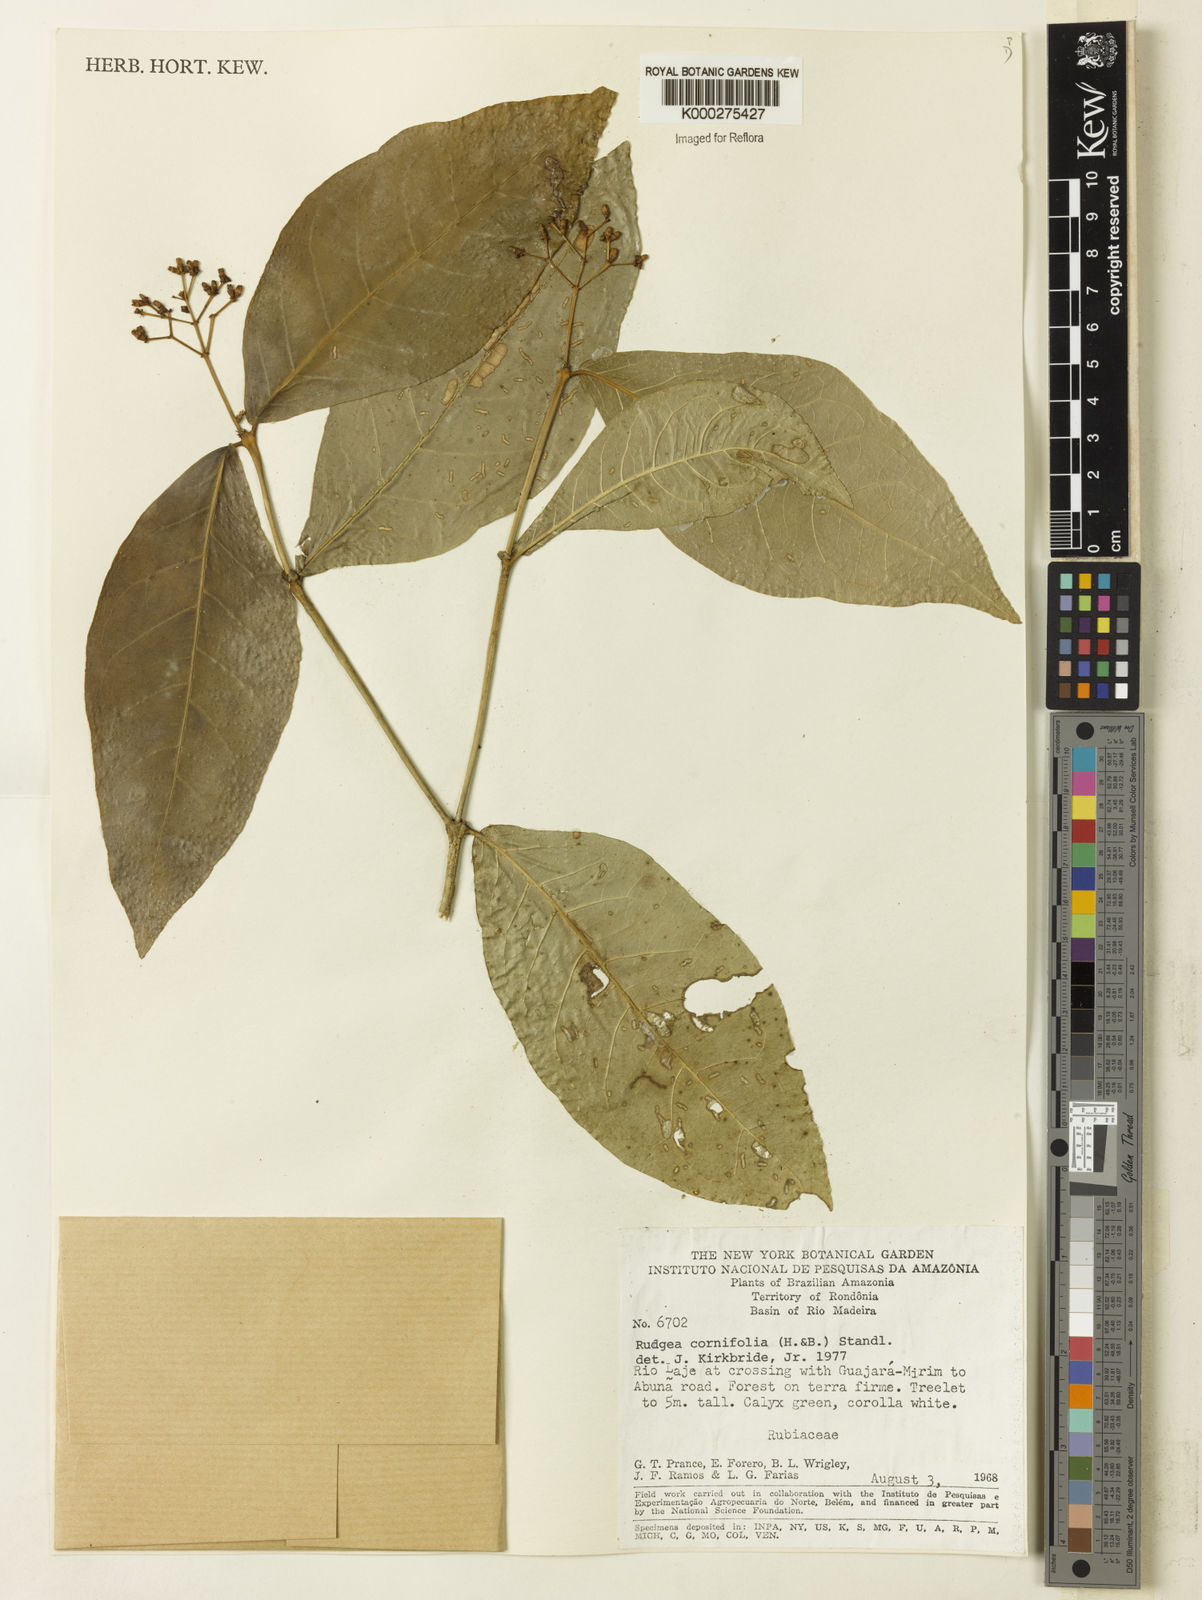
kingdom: Plantae
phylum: Tracheophyta
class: Magnoliopsida
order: Gentianales
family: Rubiaceae
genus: Rudgea
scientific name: Rudgea cornifolia
